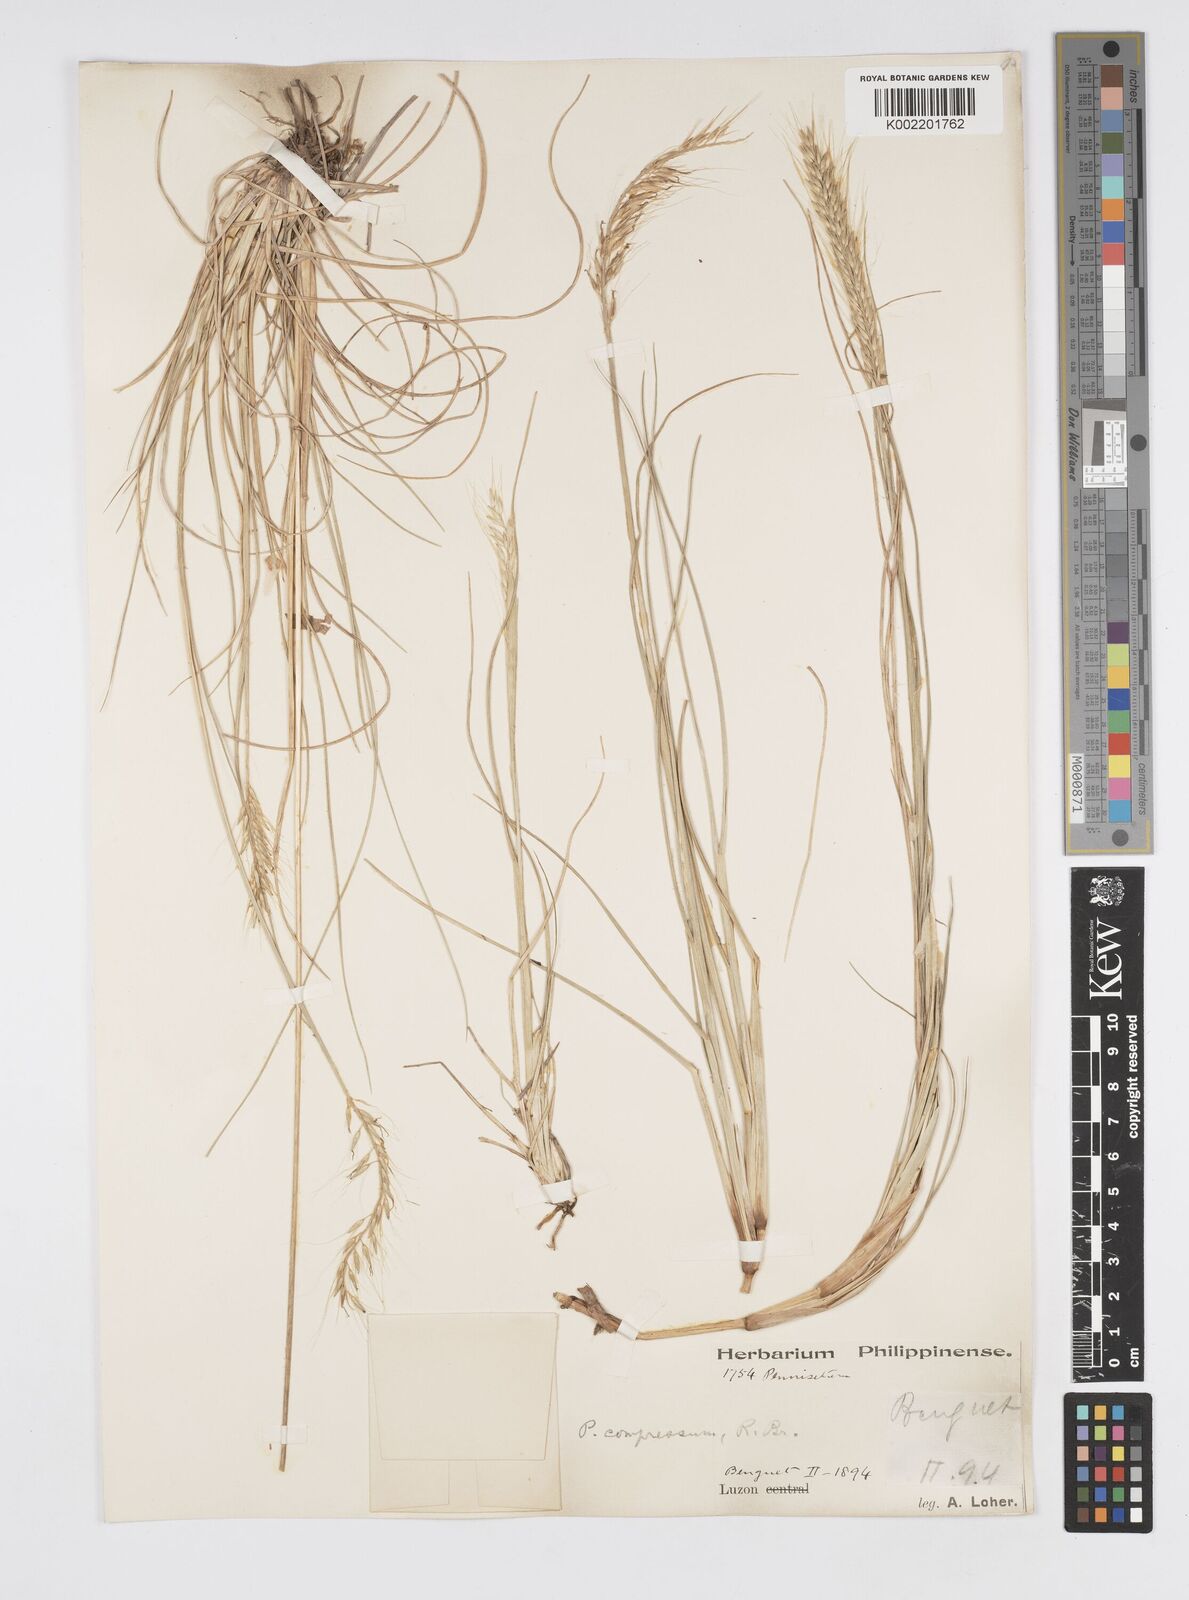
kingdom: Plantae
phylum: Tracheophyta
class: Liliopsida
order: Poales
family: Poaceae
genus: Cenchrus
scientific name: Cenchrus setosus
